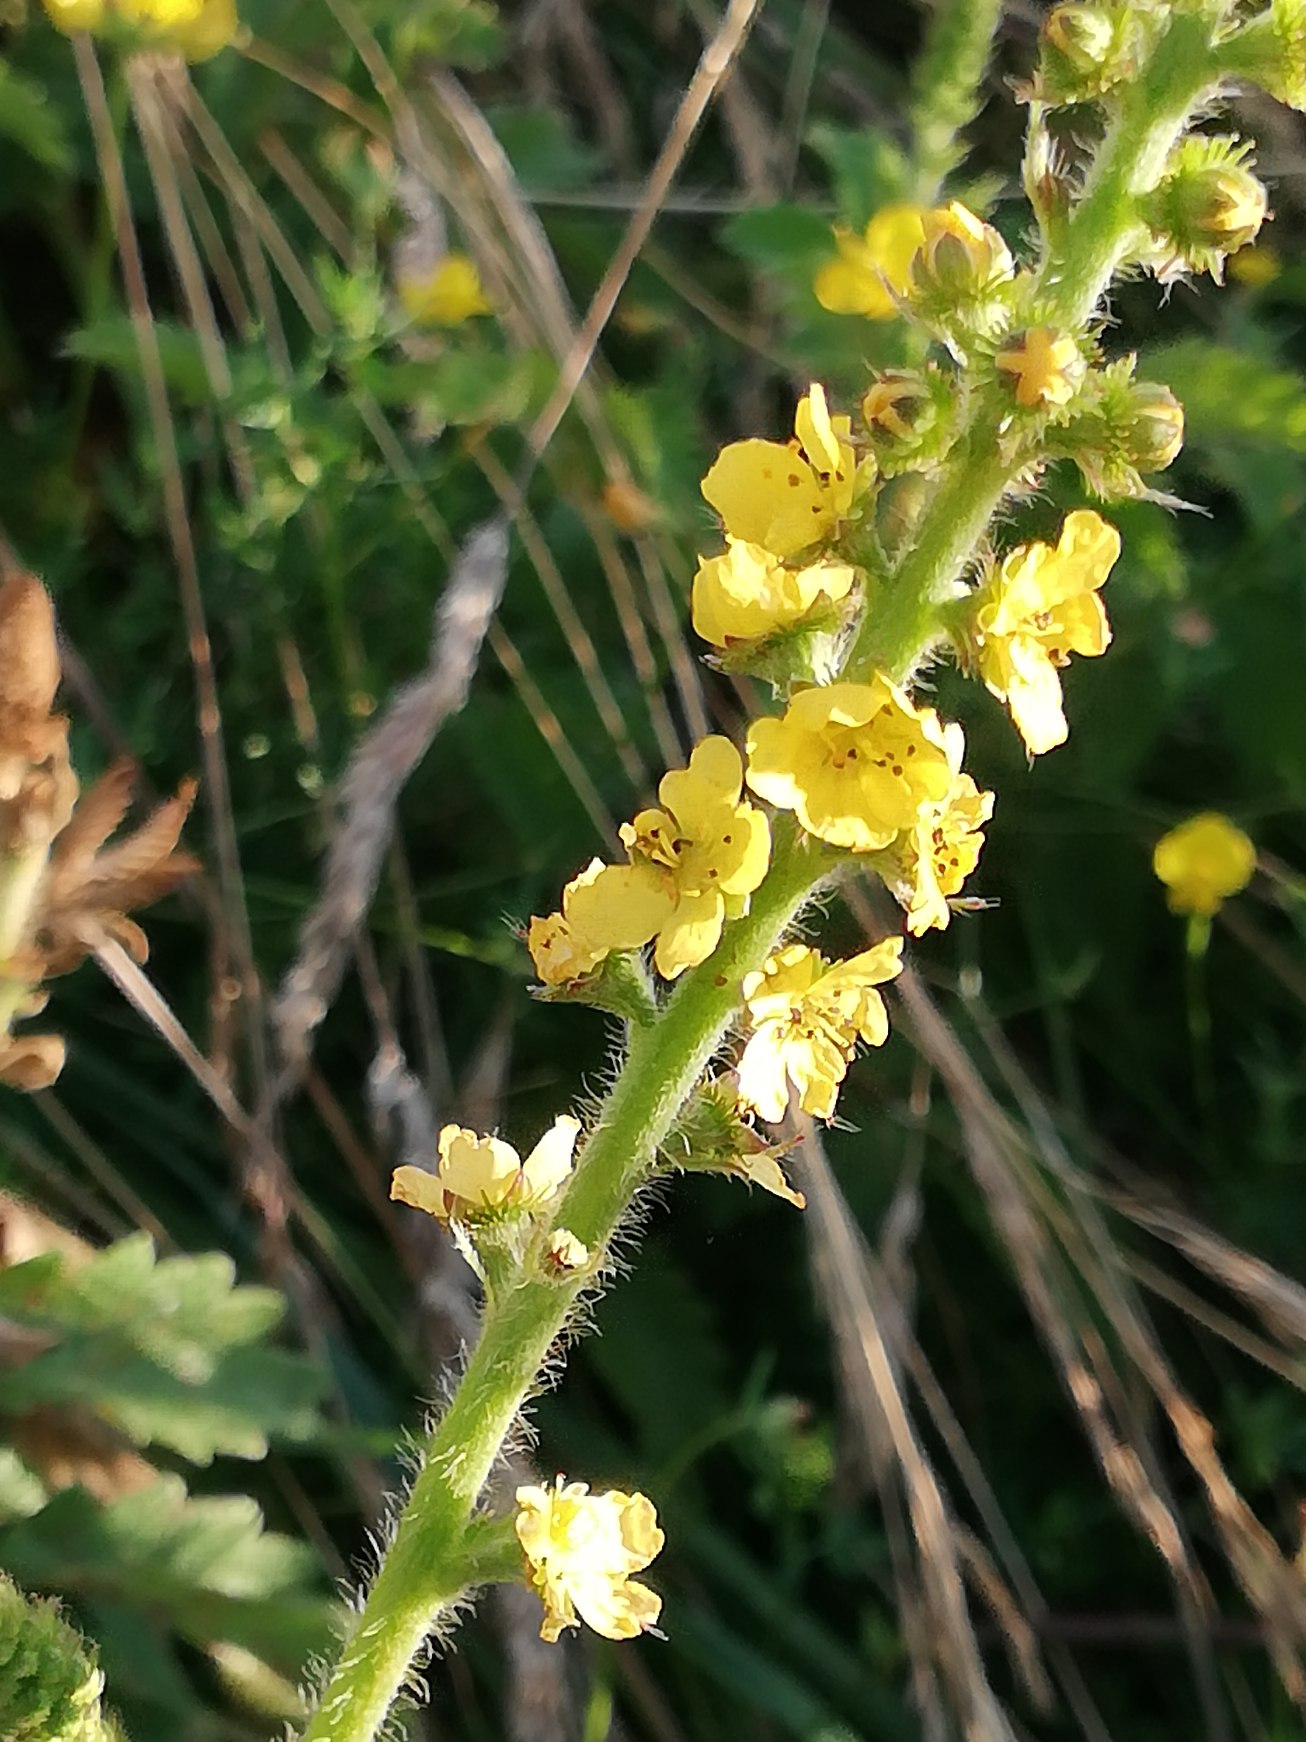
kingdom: Plantae
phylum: Tracheophyta
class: Magnoliopsida
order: Rosales
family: Rosaceae
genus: Agrimonia
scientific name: Agrimonia eupatoria
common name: Almindelig agermåne
